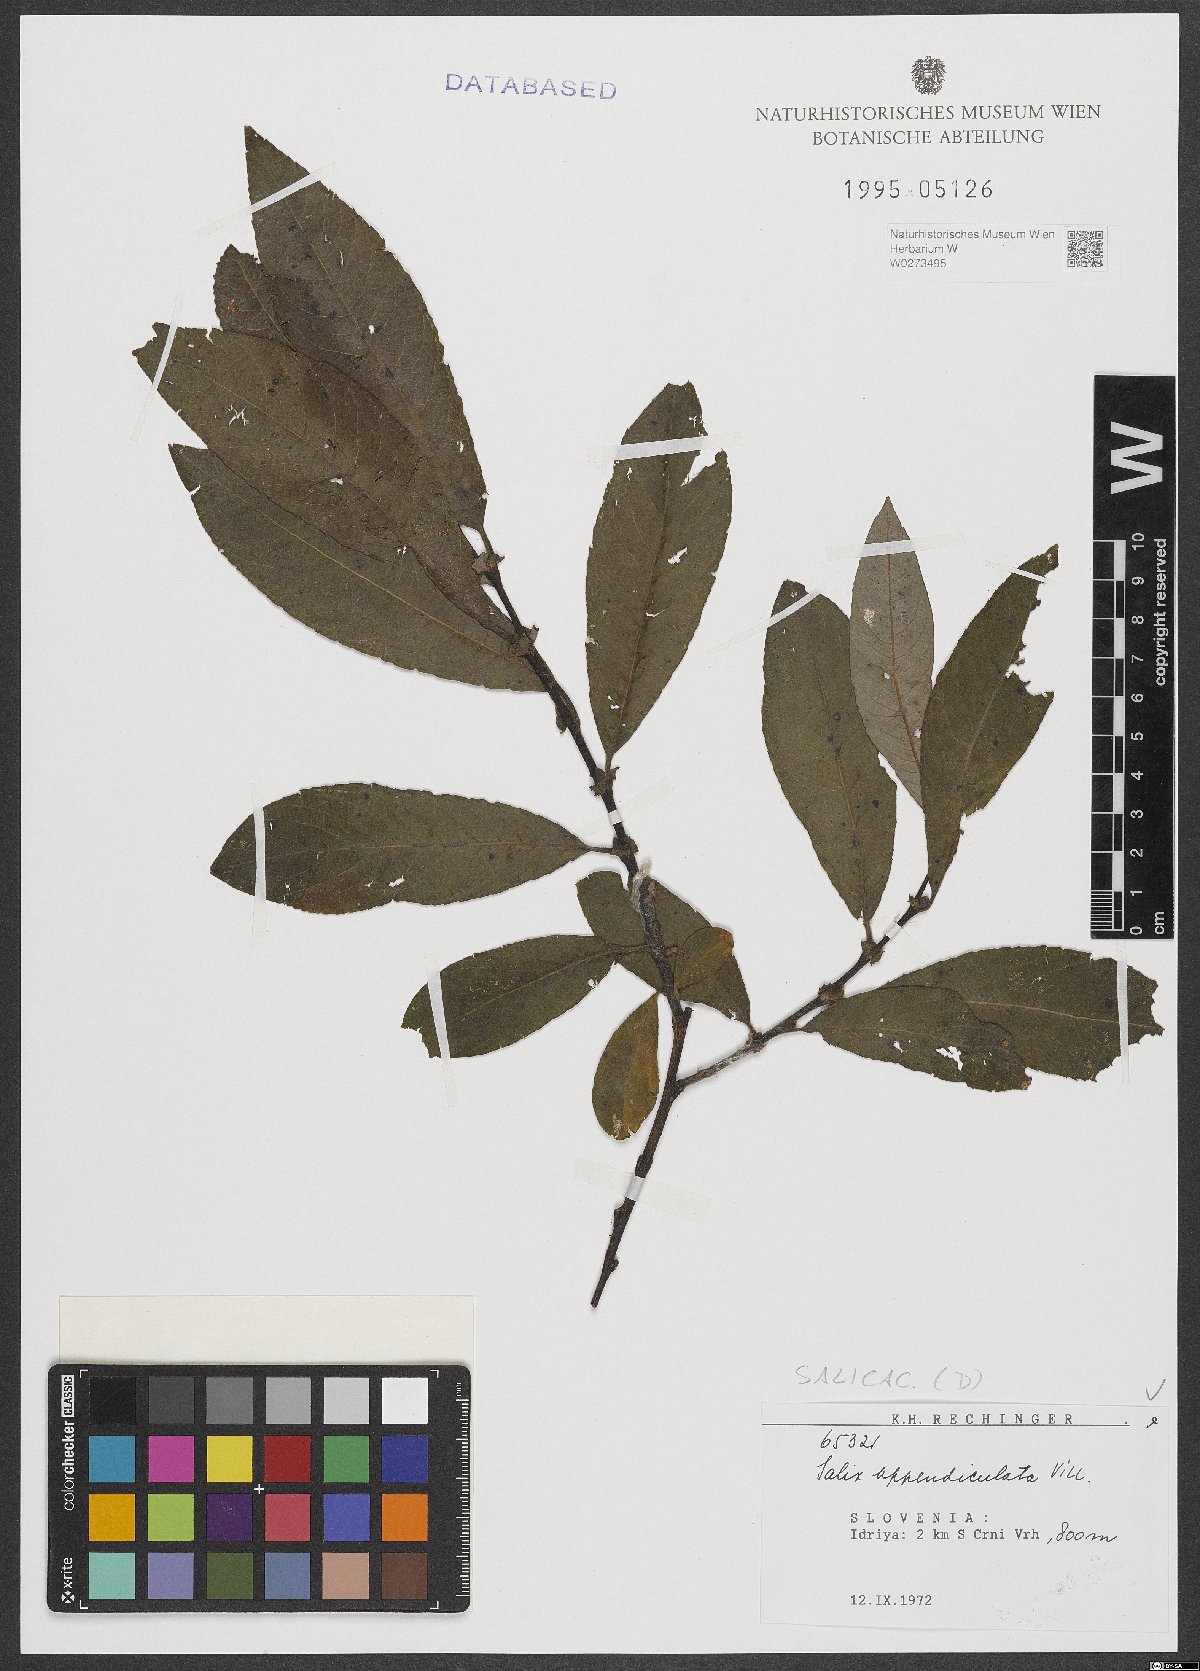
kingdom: Plantae
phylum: Tracheophyta
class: Magnoliopsida
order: Malpighiales
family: Salicaceae
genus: Salix
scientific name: Salix appendiculata
